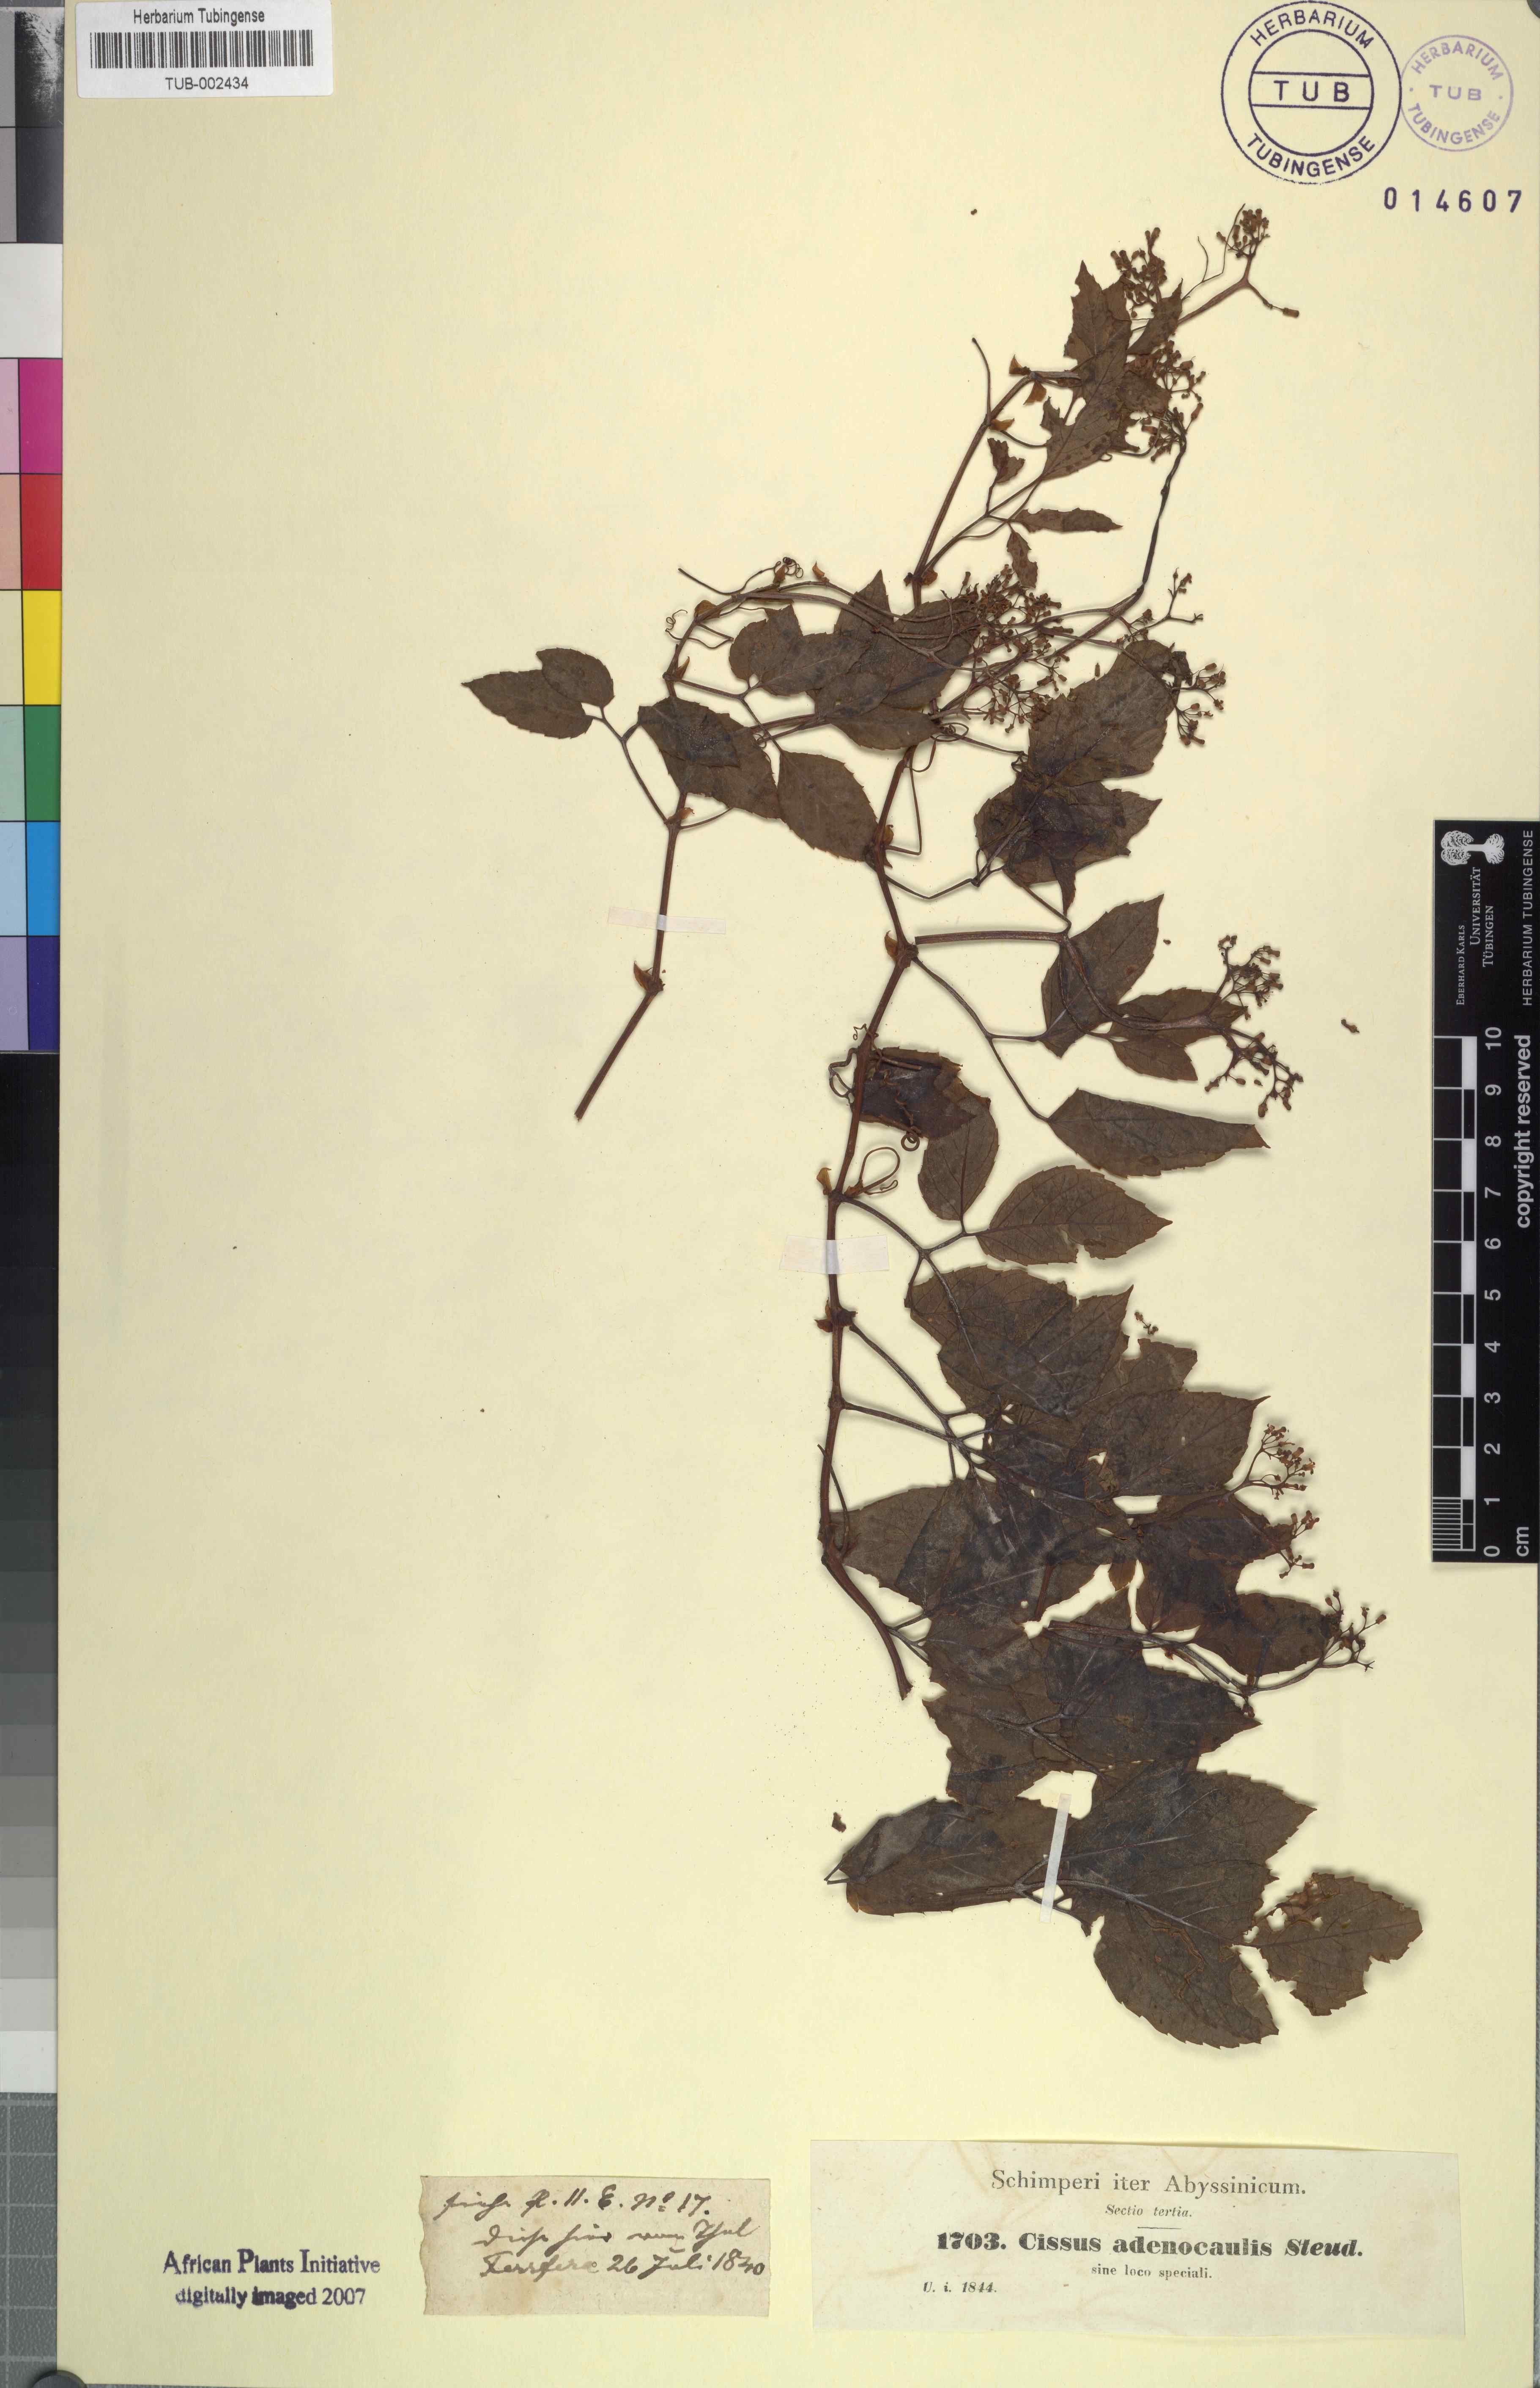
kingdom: Plantae
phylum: Tracheophyta
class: Magnoliopsida
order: Vitales
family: Vitaceae
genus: Cyphostemma
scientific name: Cyphostemma adenocaule
